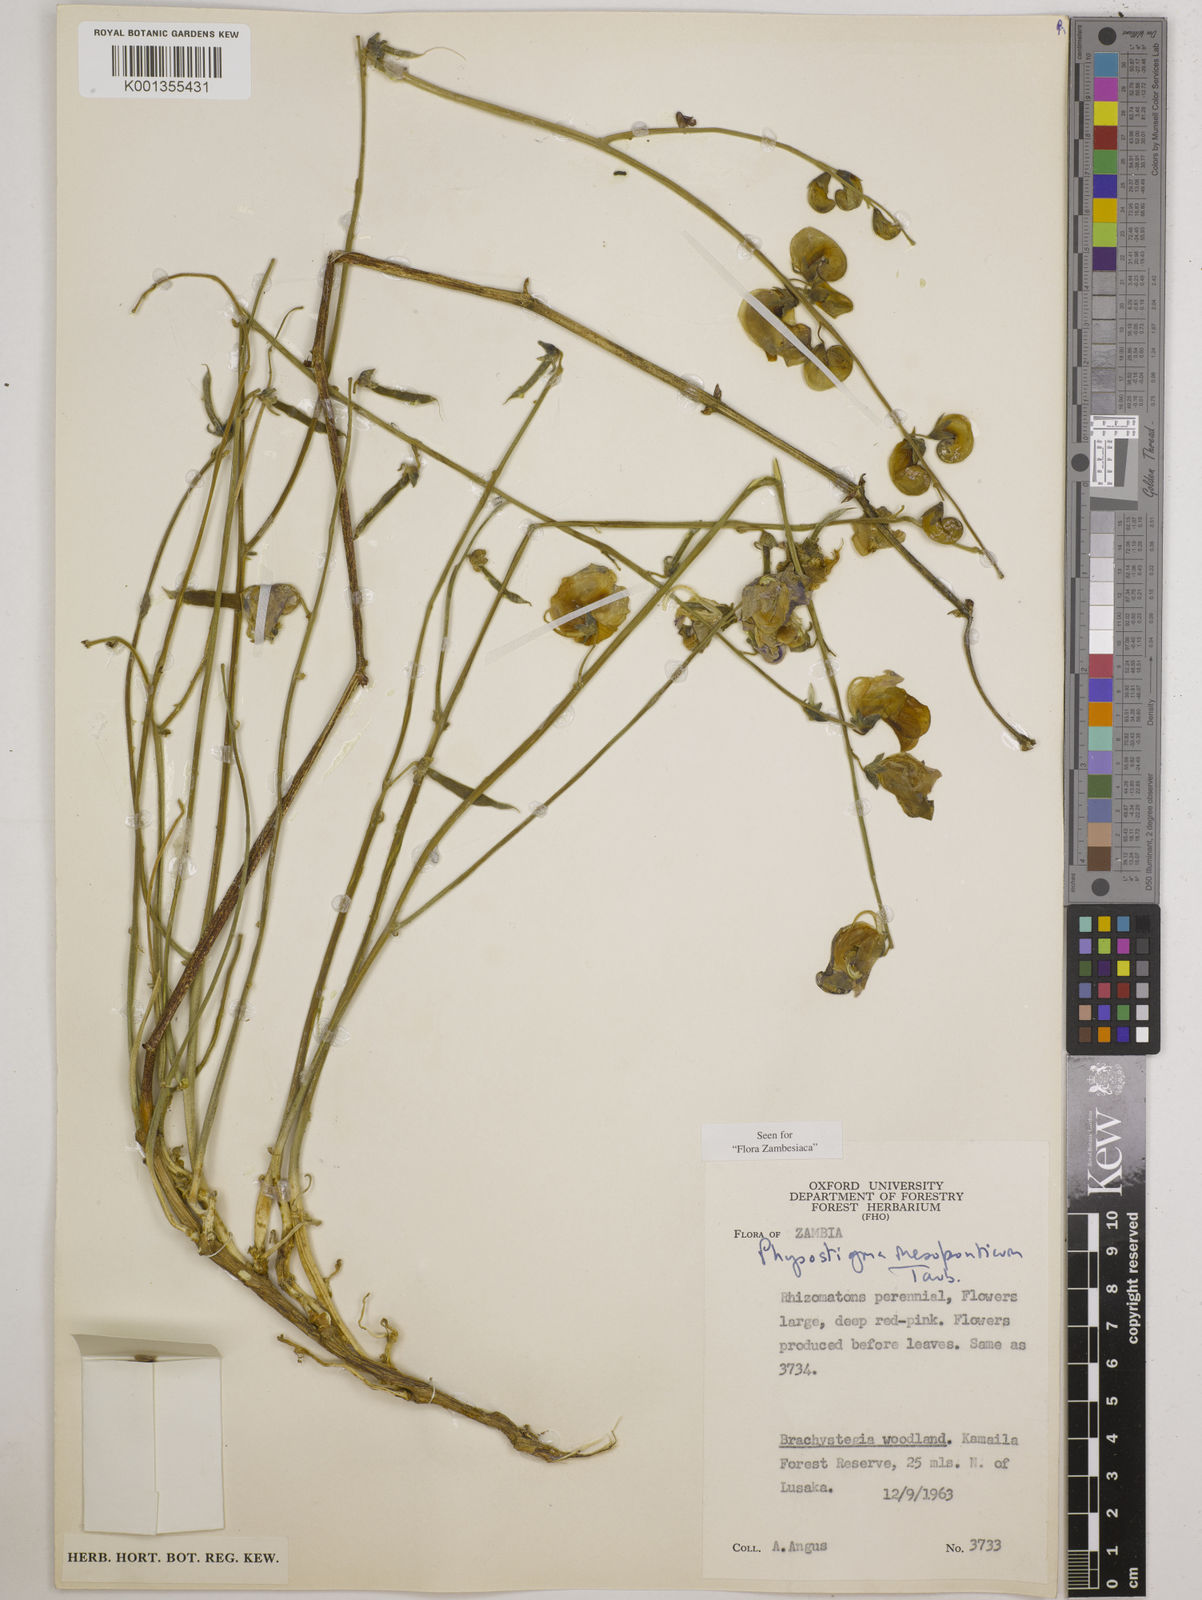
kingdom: Plantae
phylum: Tracheophyta
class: Magnoliopsida
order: Fabales
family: Fabaceae
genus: Physostigma
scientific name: Physostigma mesoponticum
